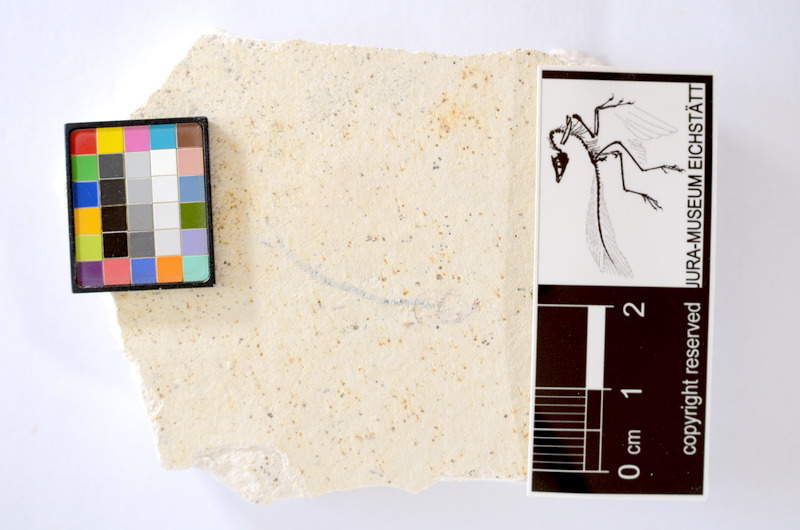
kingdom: Animalia
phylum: Chordata
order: Salmoniformes
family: Orthogonikleithridae
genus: Orthogonikleithrus
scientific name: Orthogonikleithrus hoelli
